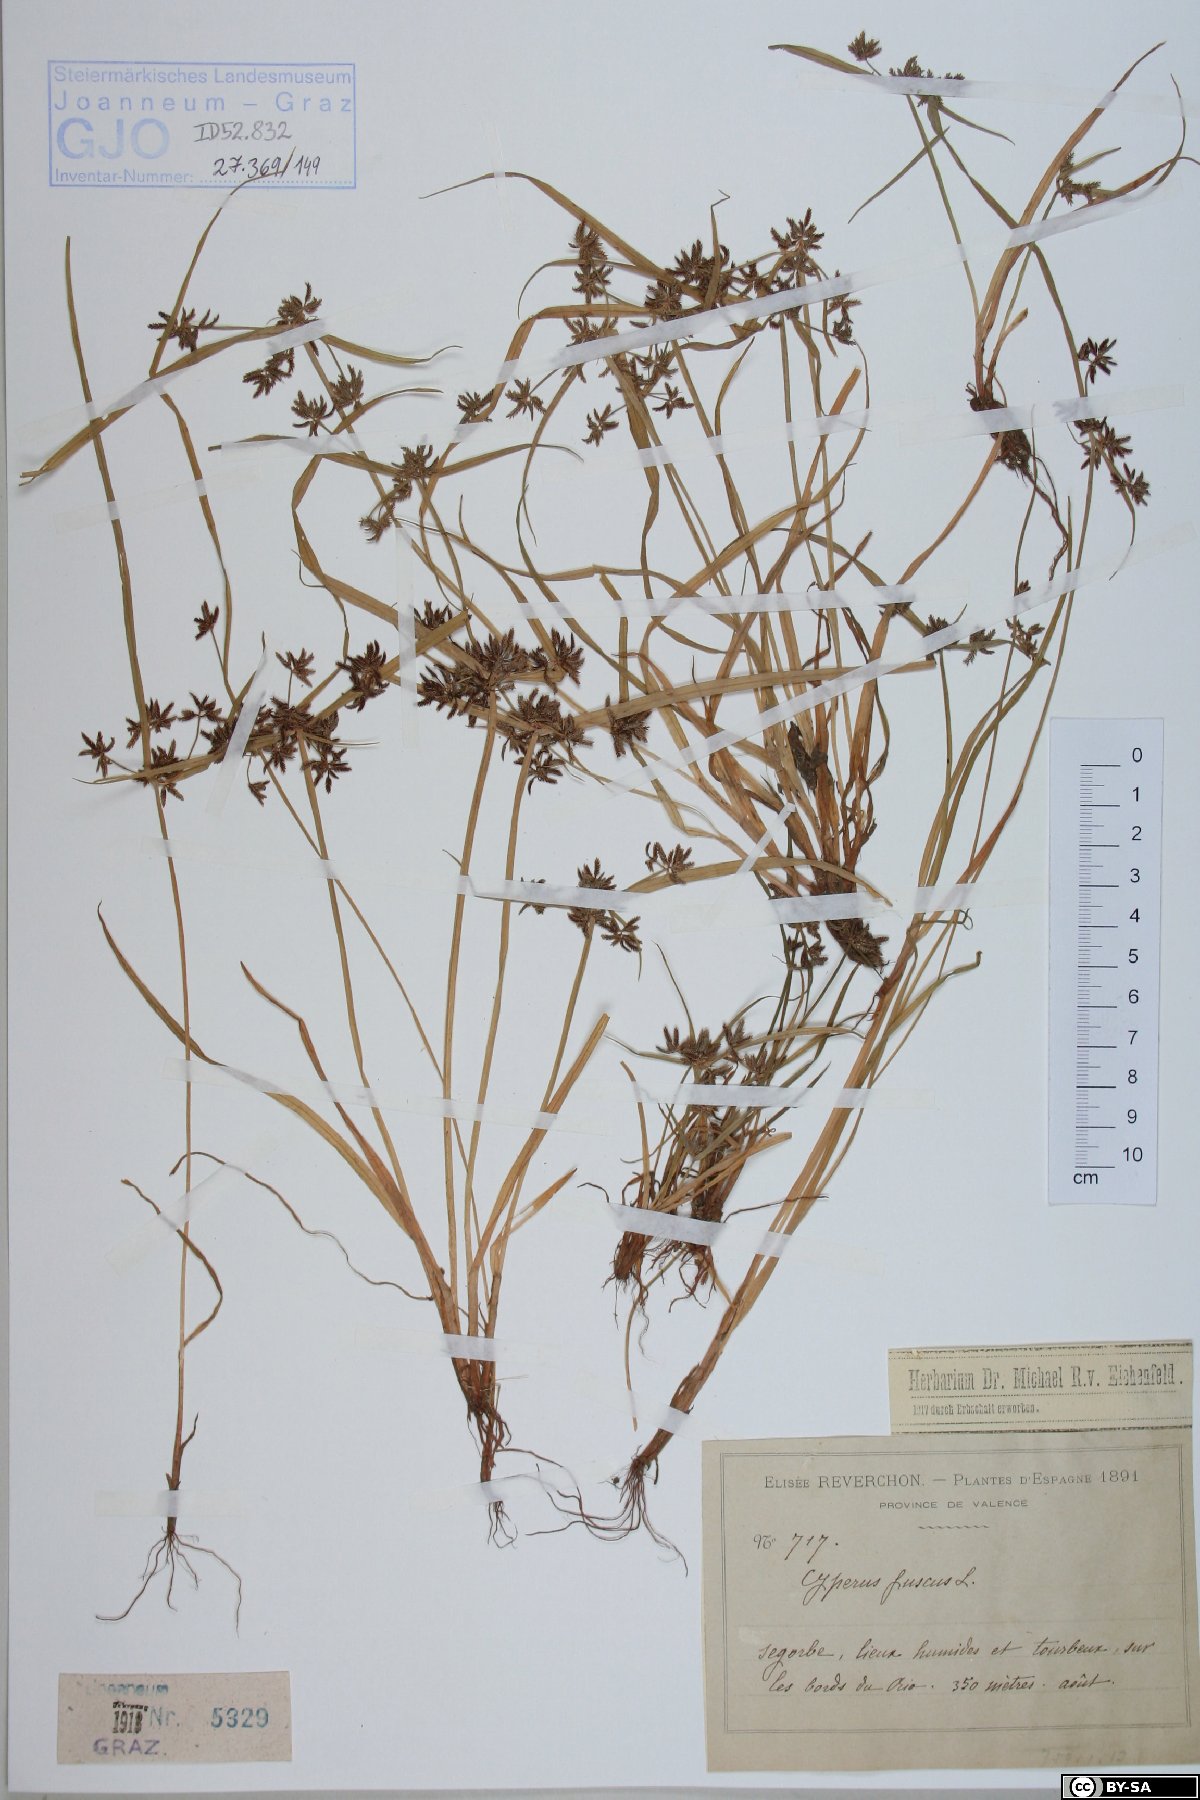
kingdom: Plantae
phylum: Tracheophyta
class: Liliopsida
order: Poales
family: Cyperaceae
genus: Cyperus
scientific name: Cyperus fuscus
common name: Brown galingale
